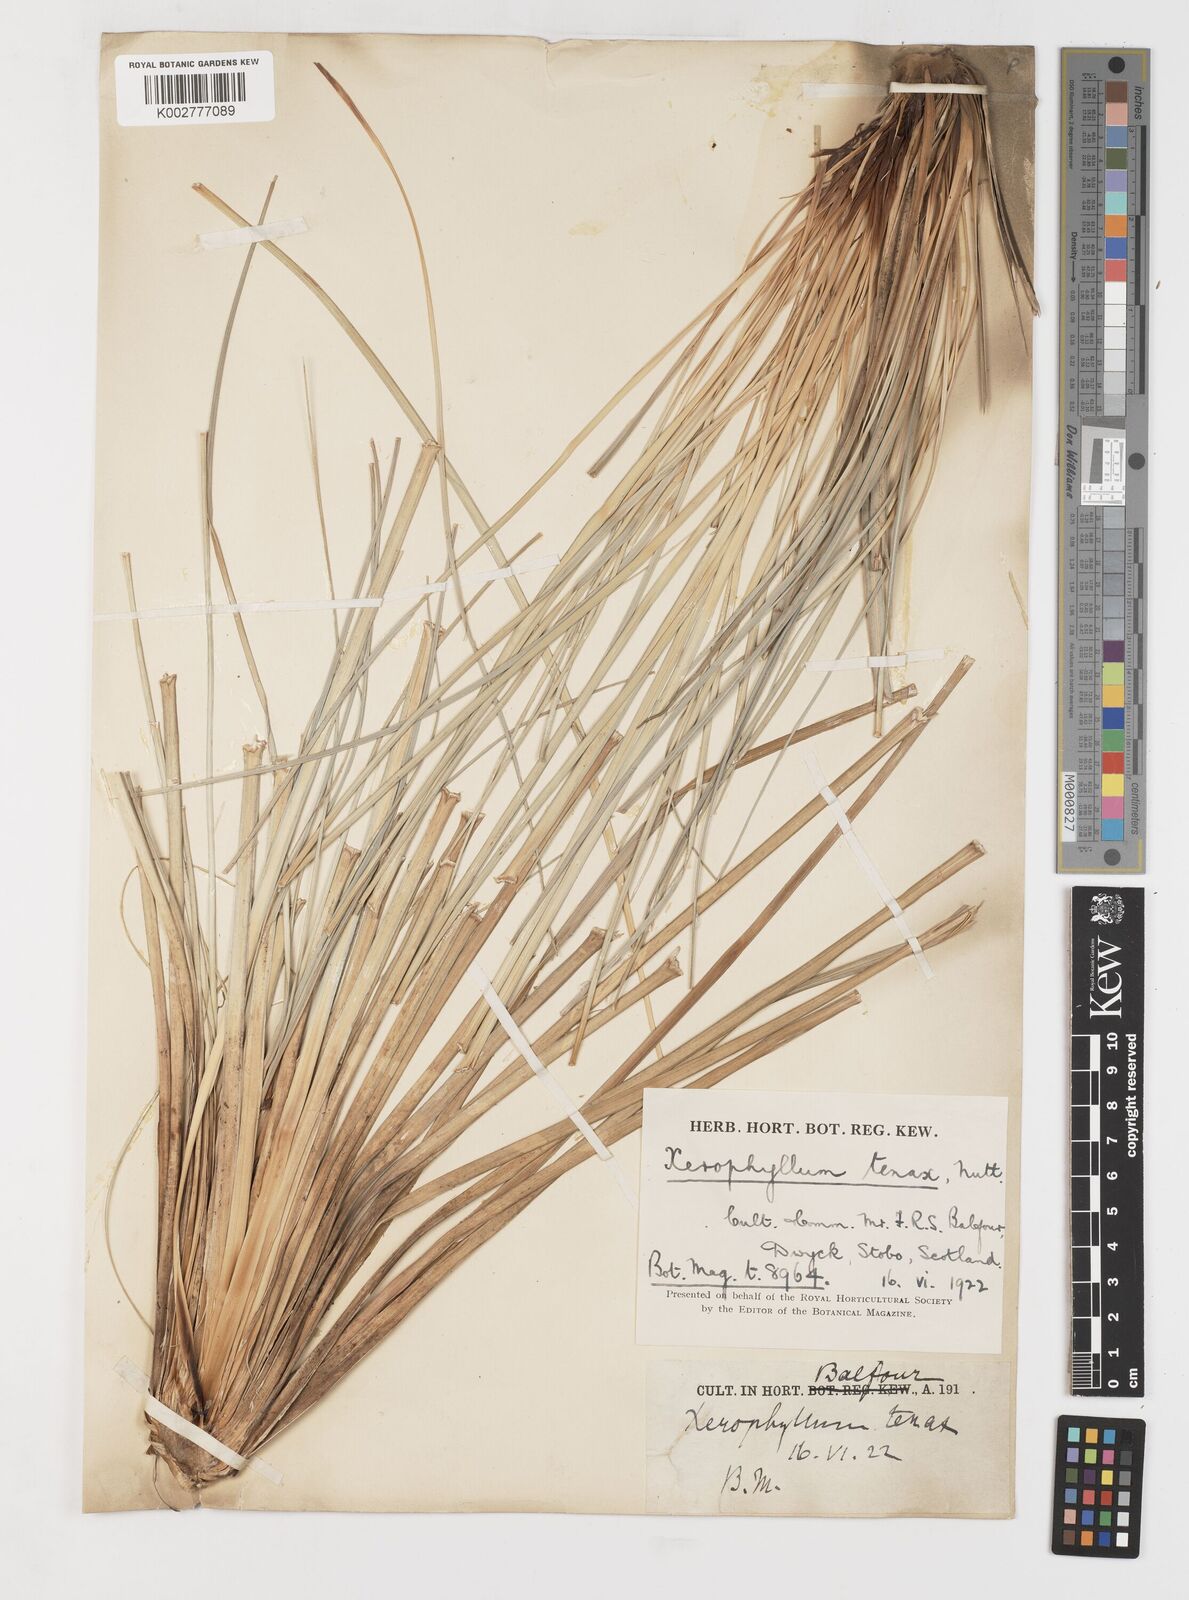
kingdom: Plantae
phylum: Tracheophyta
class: Liliopsida
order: Liliales
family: Melanthiaceae
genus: Xerophyllum
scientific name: Xerophyllum tenax
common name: Bear-grass
